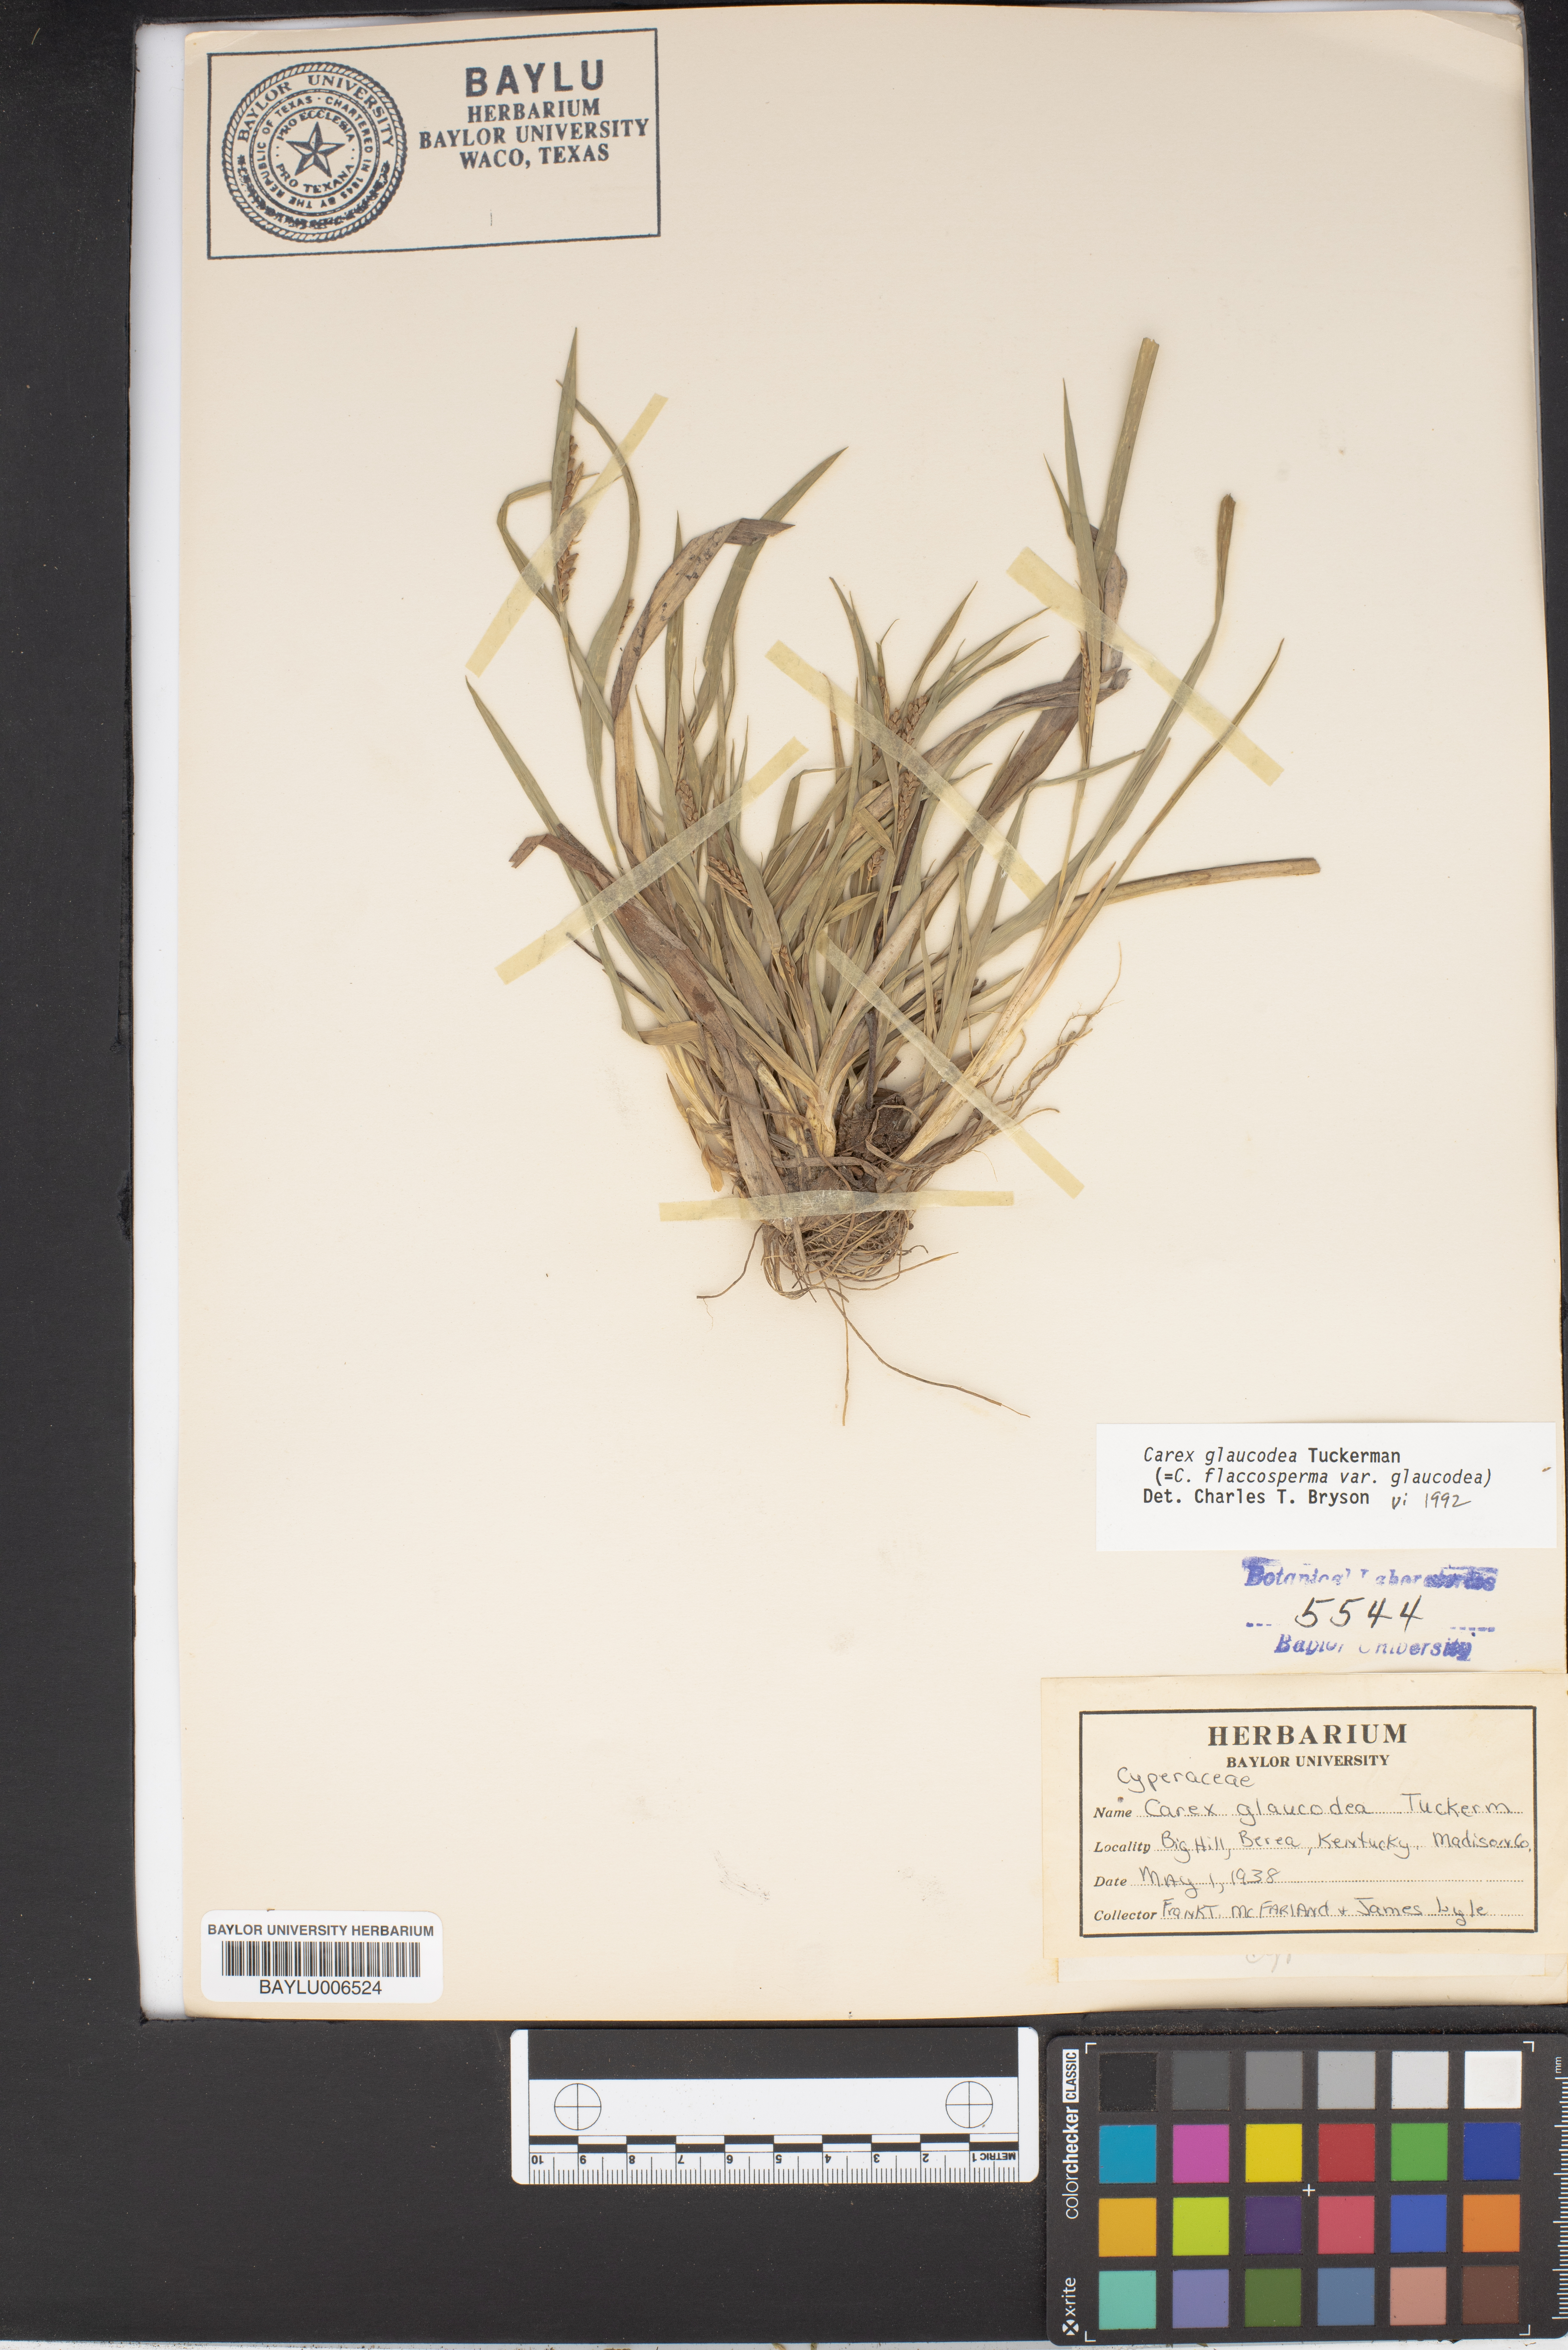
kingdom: Plantae
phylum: Tracheophyta
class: Liliopsida
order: Poales
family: Cyperaceae
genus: Carex
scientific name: Carex glaucodea
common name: Blue sedge
